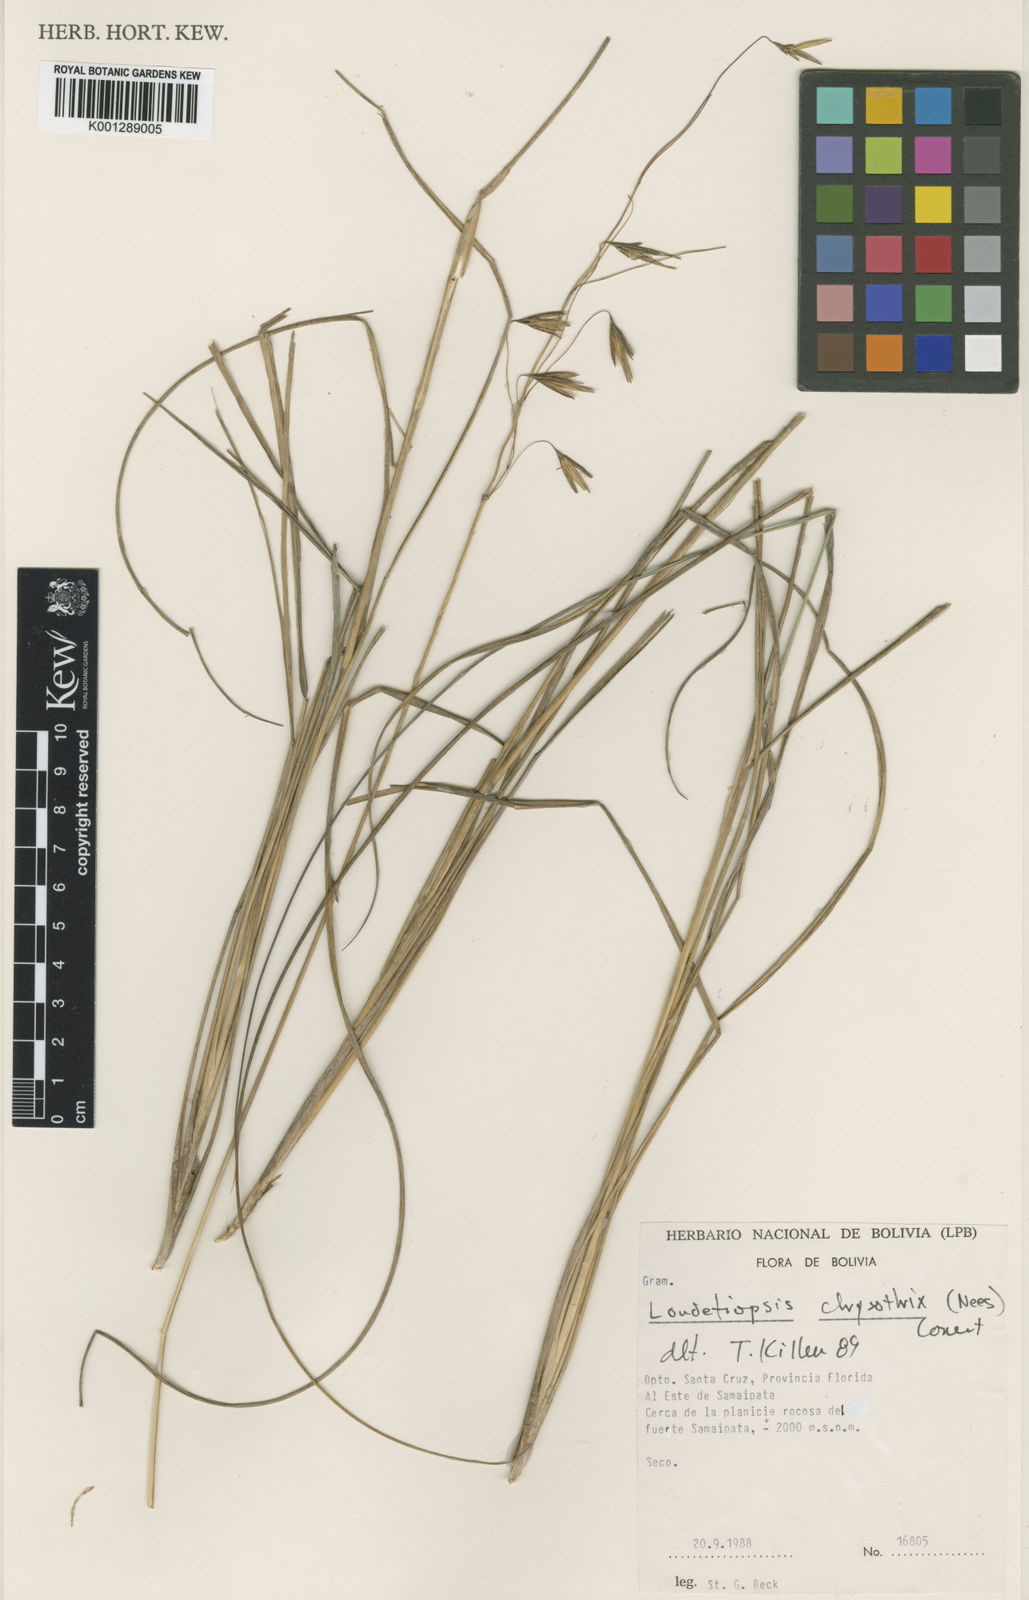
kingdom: Plantae
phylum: Tracheophyta
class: Liliopsida
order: Poales
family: Poaceae
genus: Loudetiopsis
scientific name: Loudetiopsis chrysothrix
